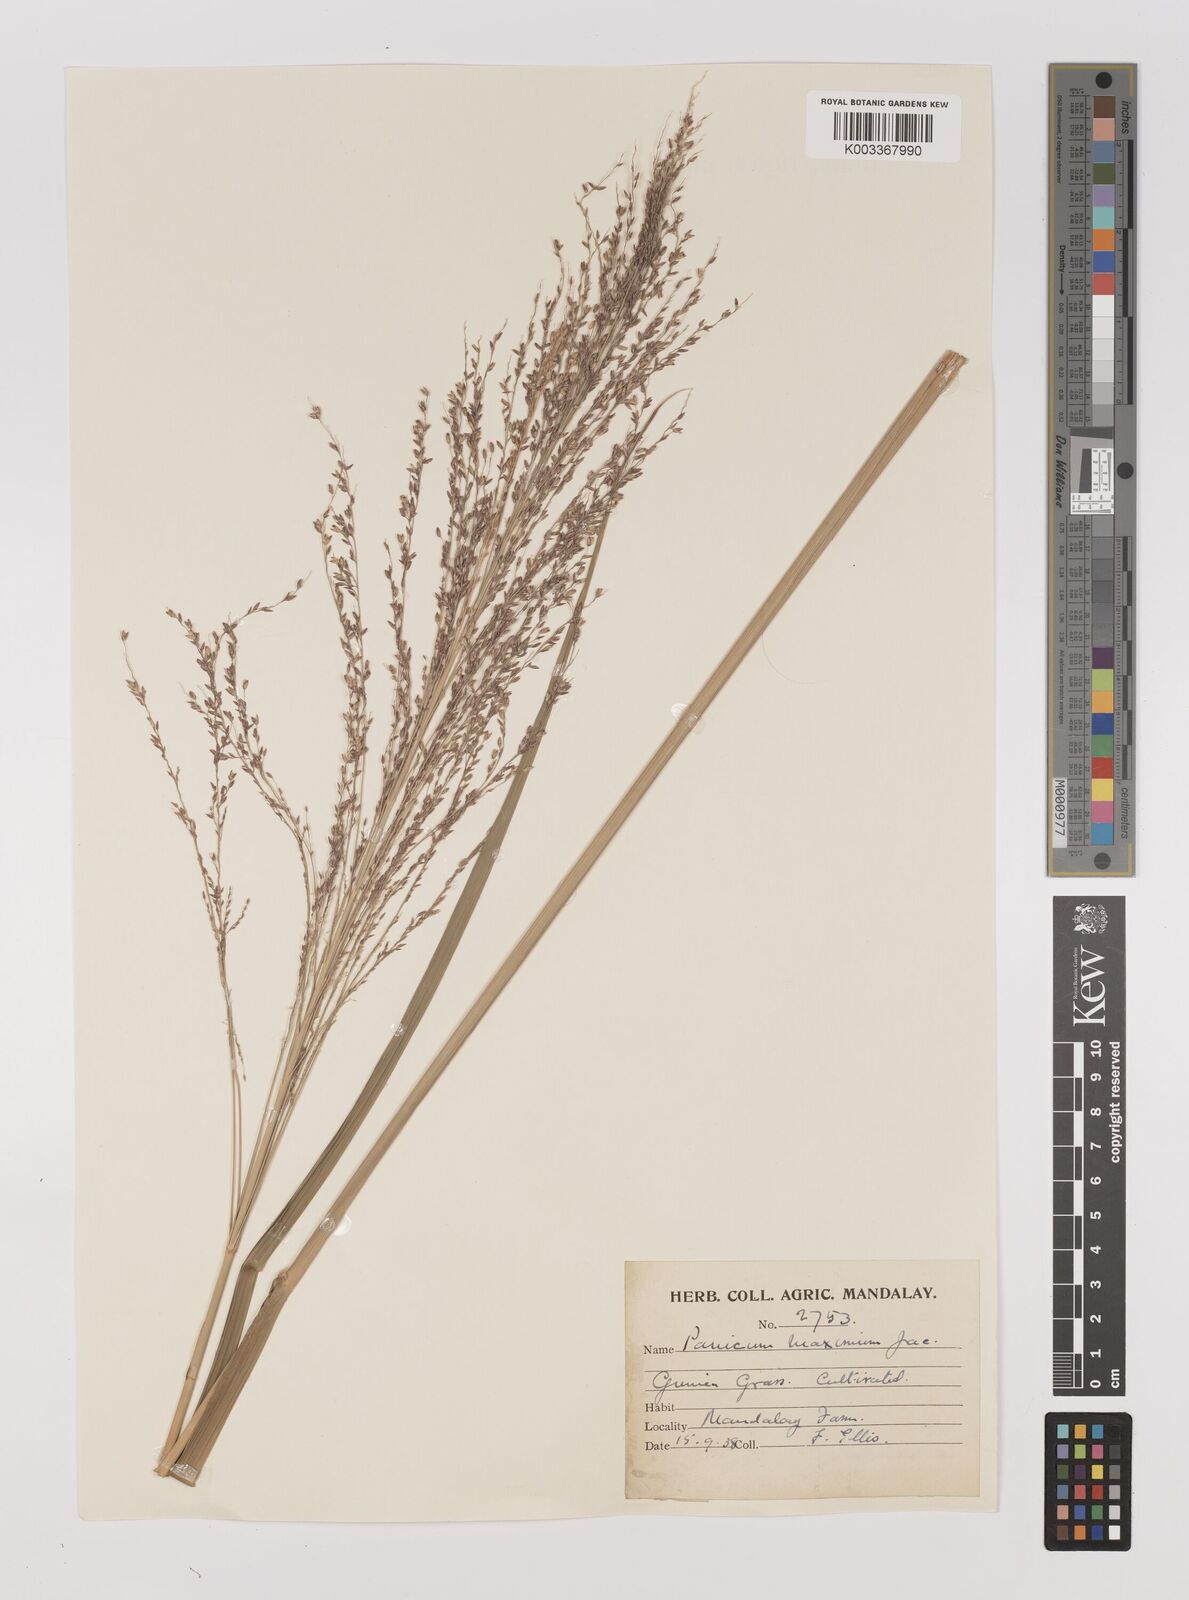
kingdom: Plantae
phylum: Tracheophyta
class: Liliopsida
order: Poales
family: Poaceae
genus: Megathyrsus
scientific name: Megathyrsus maximus
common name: Guineagrass
